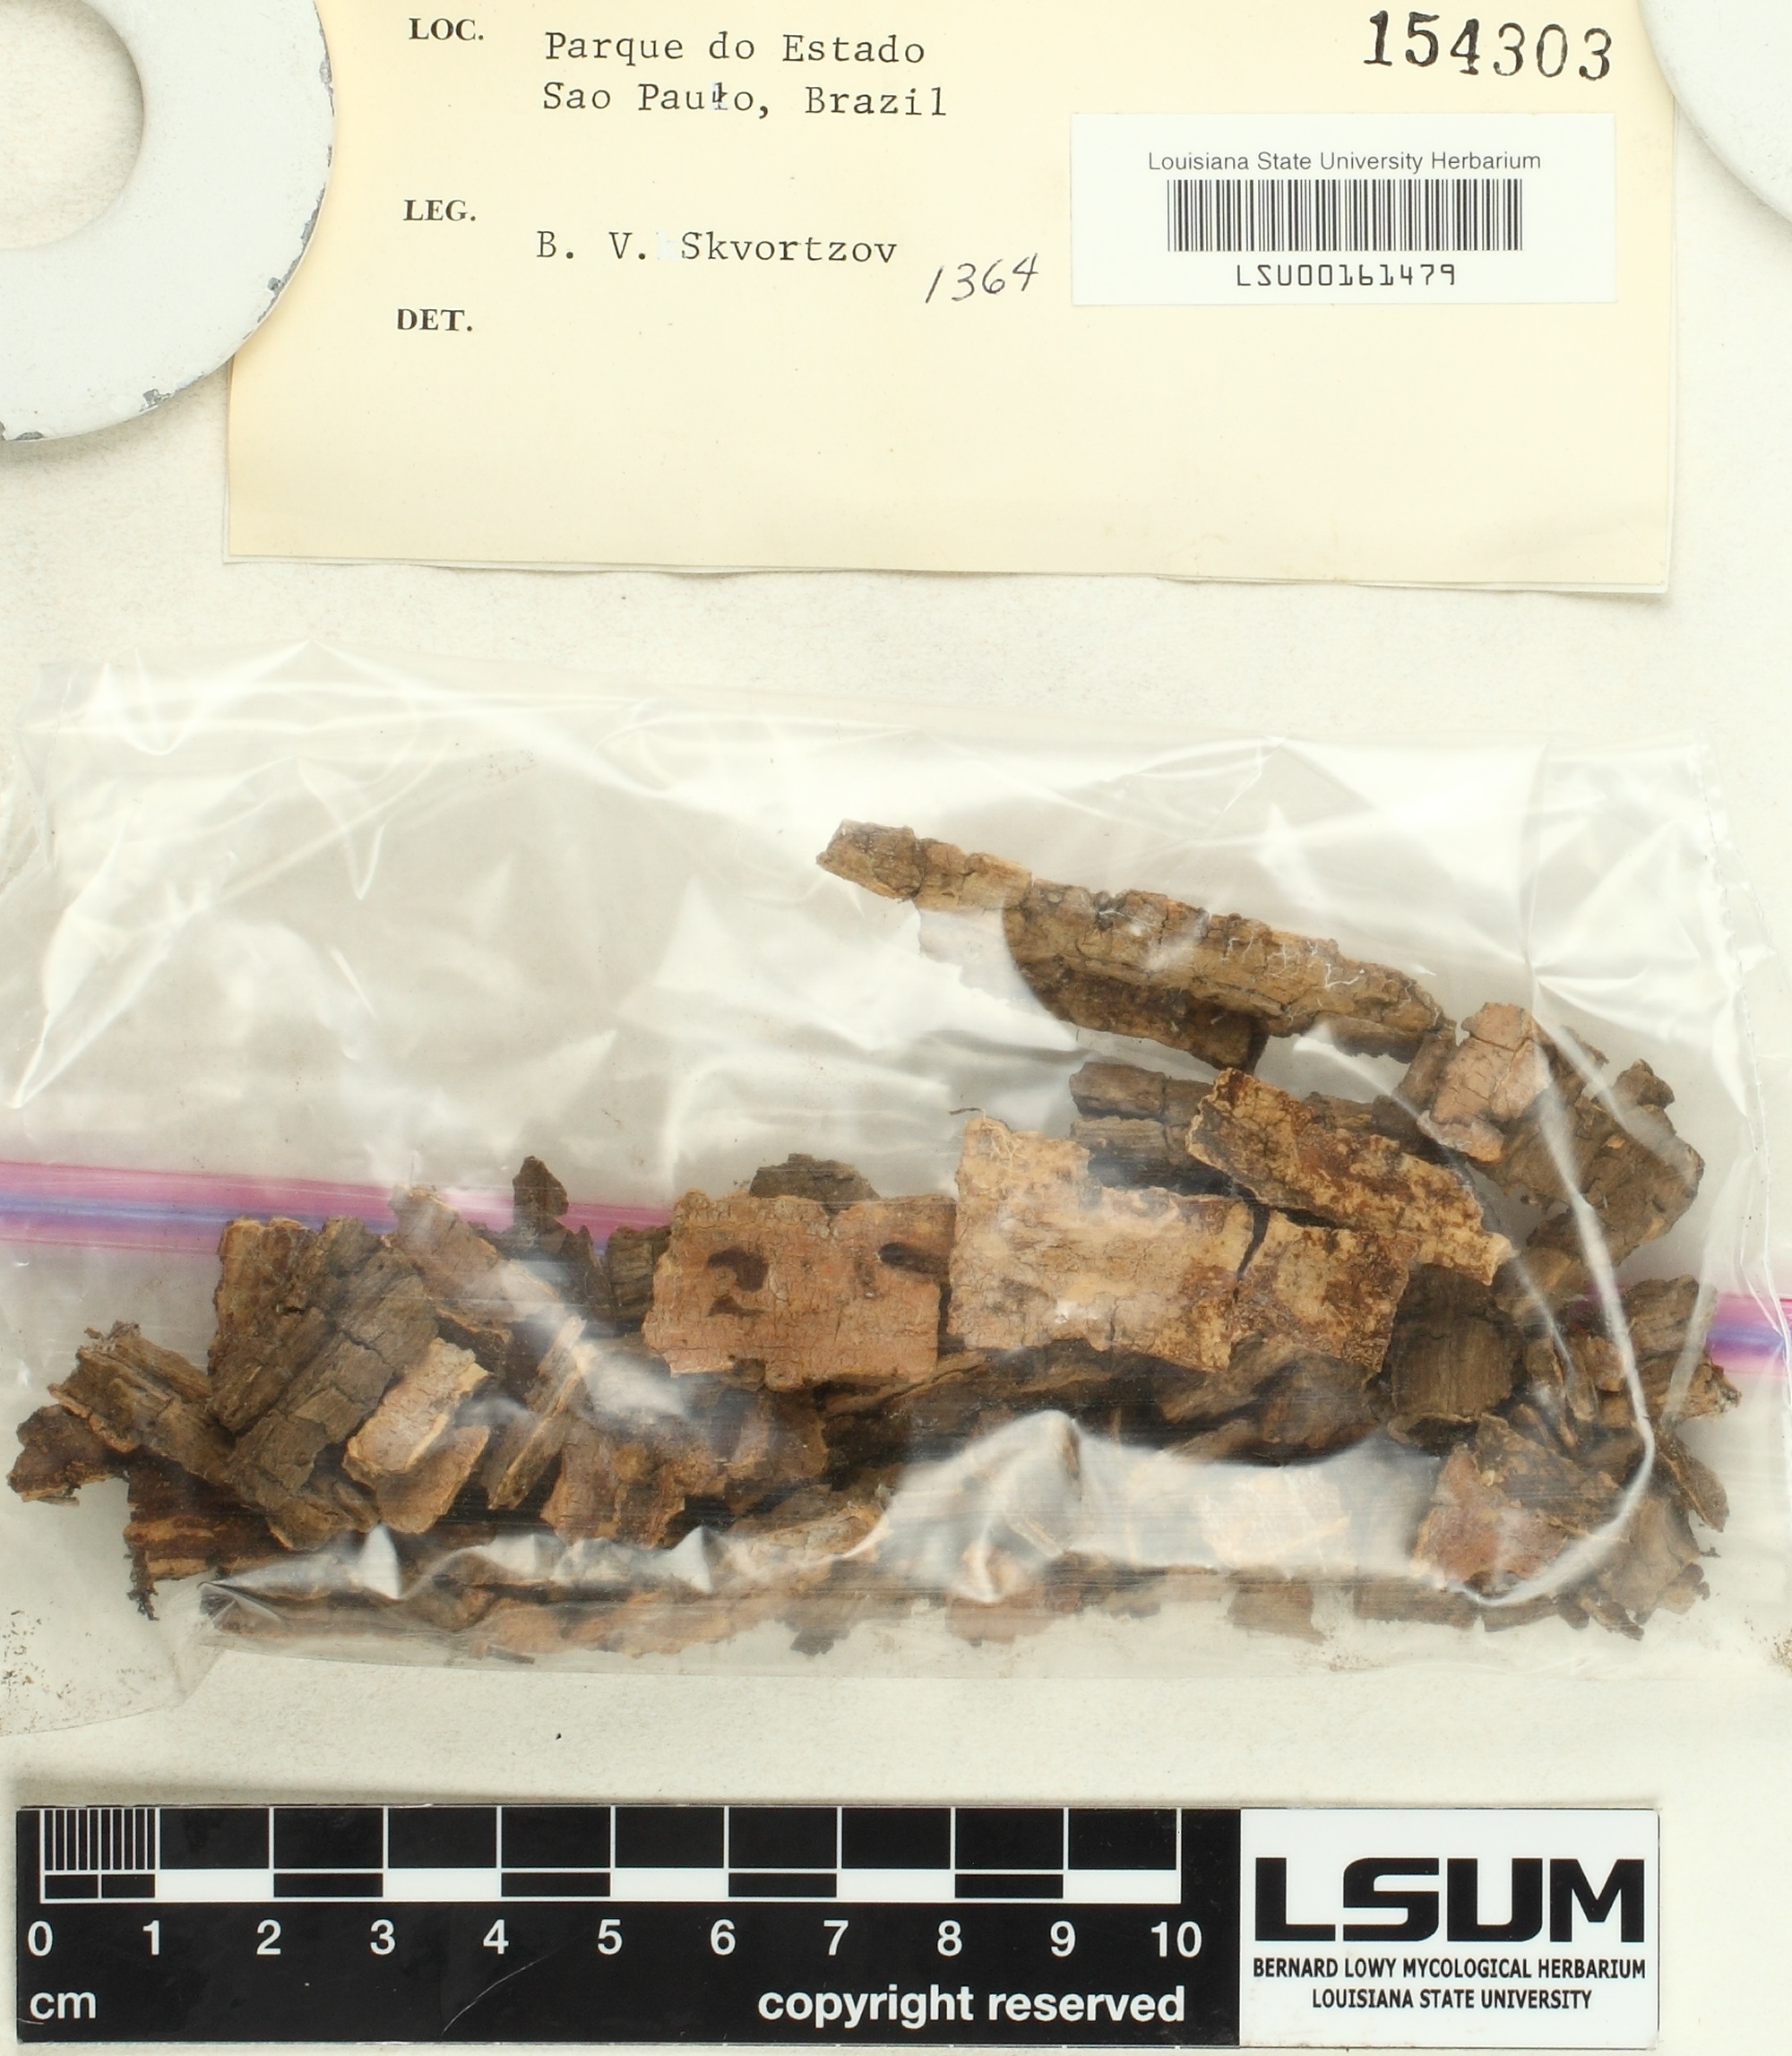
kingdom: Fungi
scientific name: Fungi
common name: Fungi
